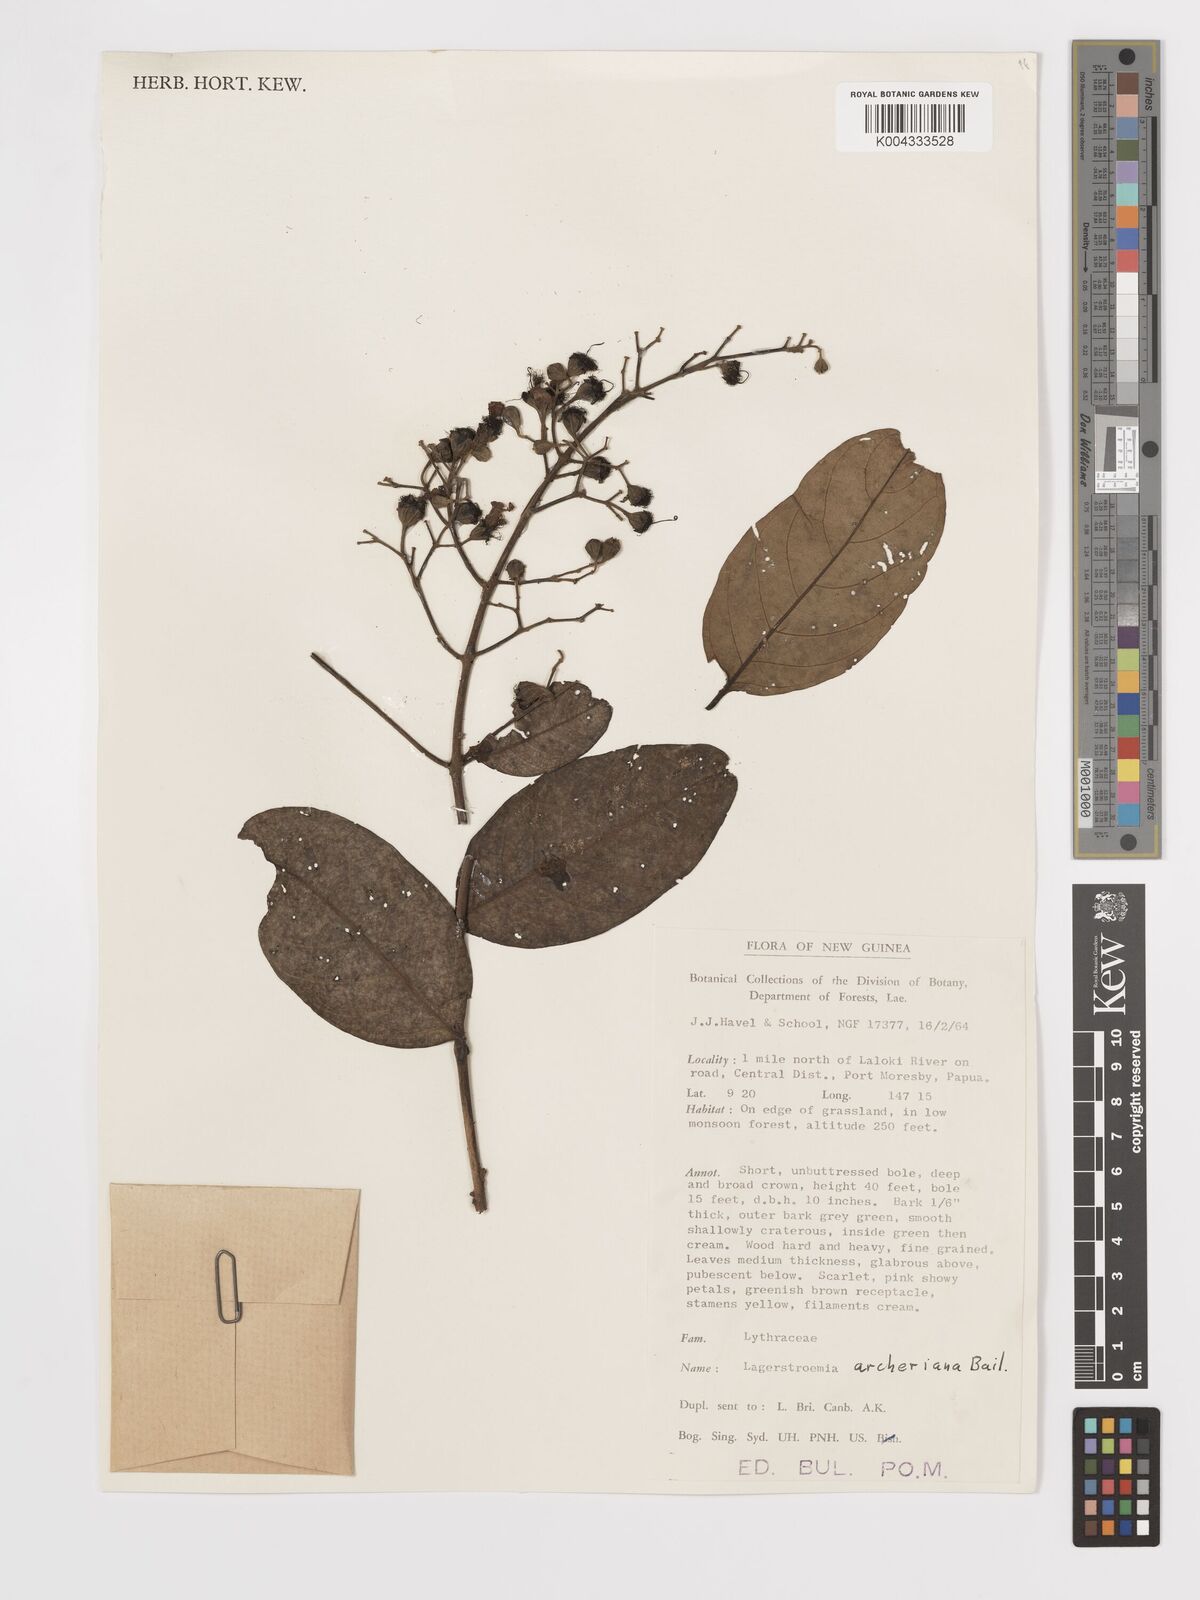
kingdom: Plantae
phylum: Tracheophyta
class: Magnoliopsida
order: Myrtales
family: Lythraceae
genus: Lagerstroemia
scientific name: Lagerstroemia engleriana
